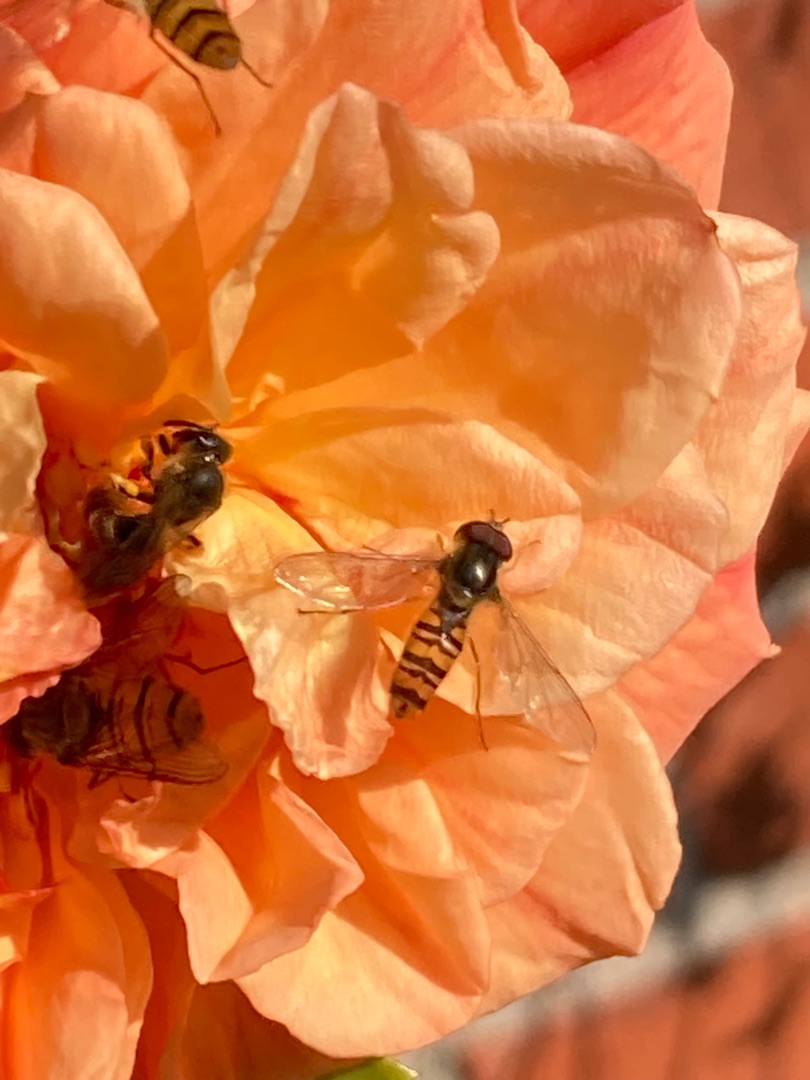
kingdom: Animalia
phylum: Arthropoda
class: Insecta
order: Diptera
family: Syrphidae
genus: Episyrphus
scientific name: Episyrphus balteatus
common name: Dobbeltbåndet svirreflue
